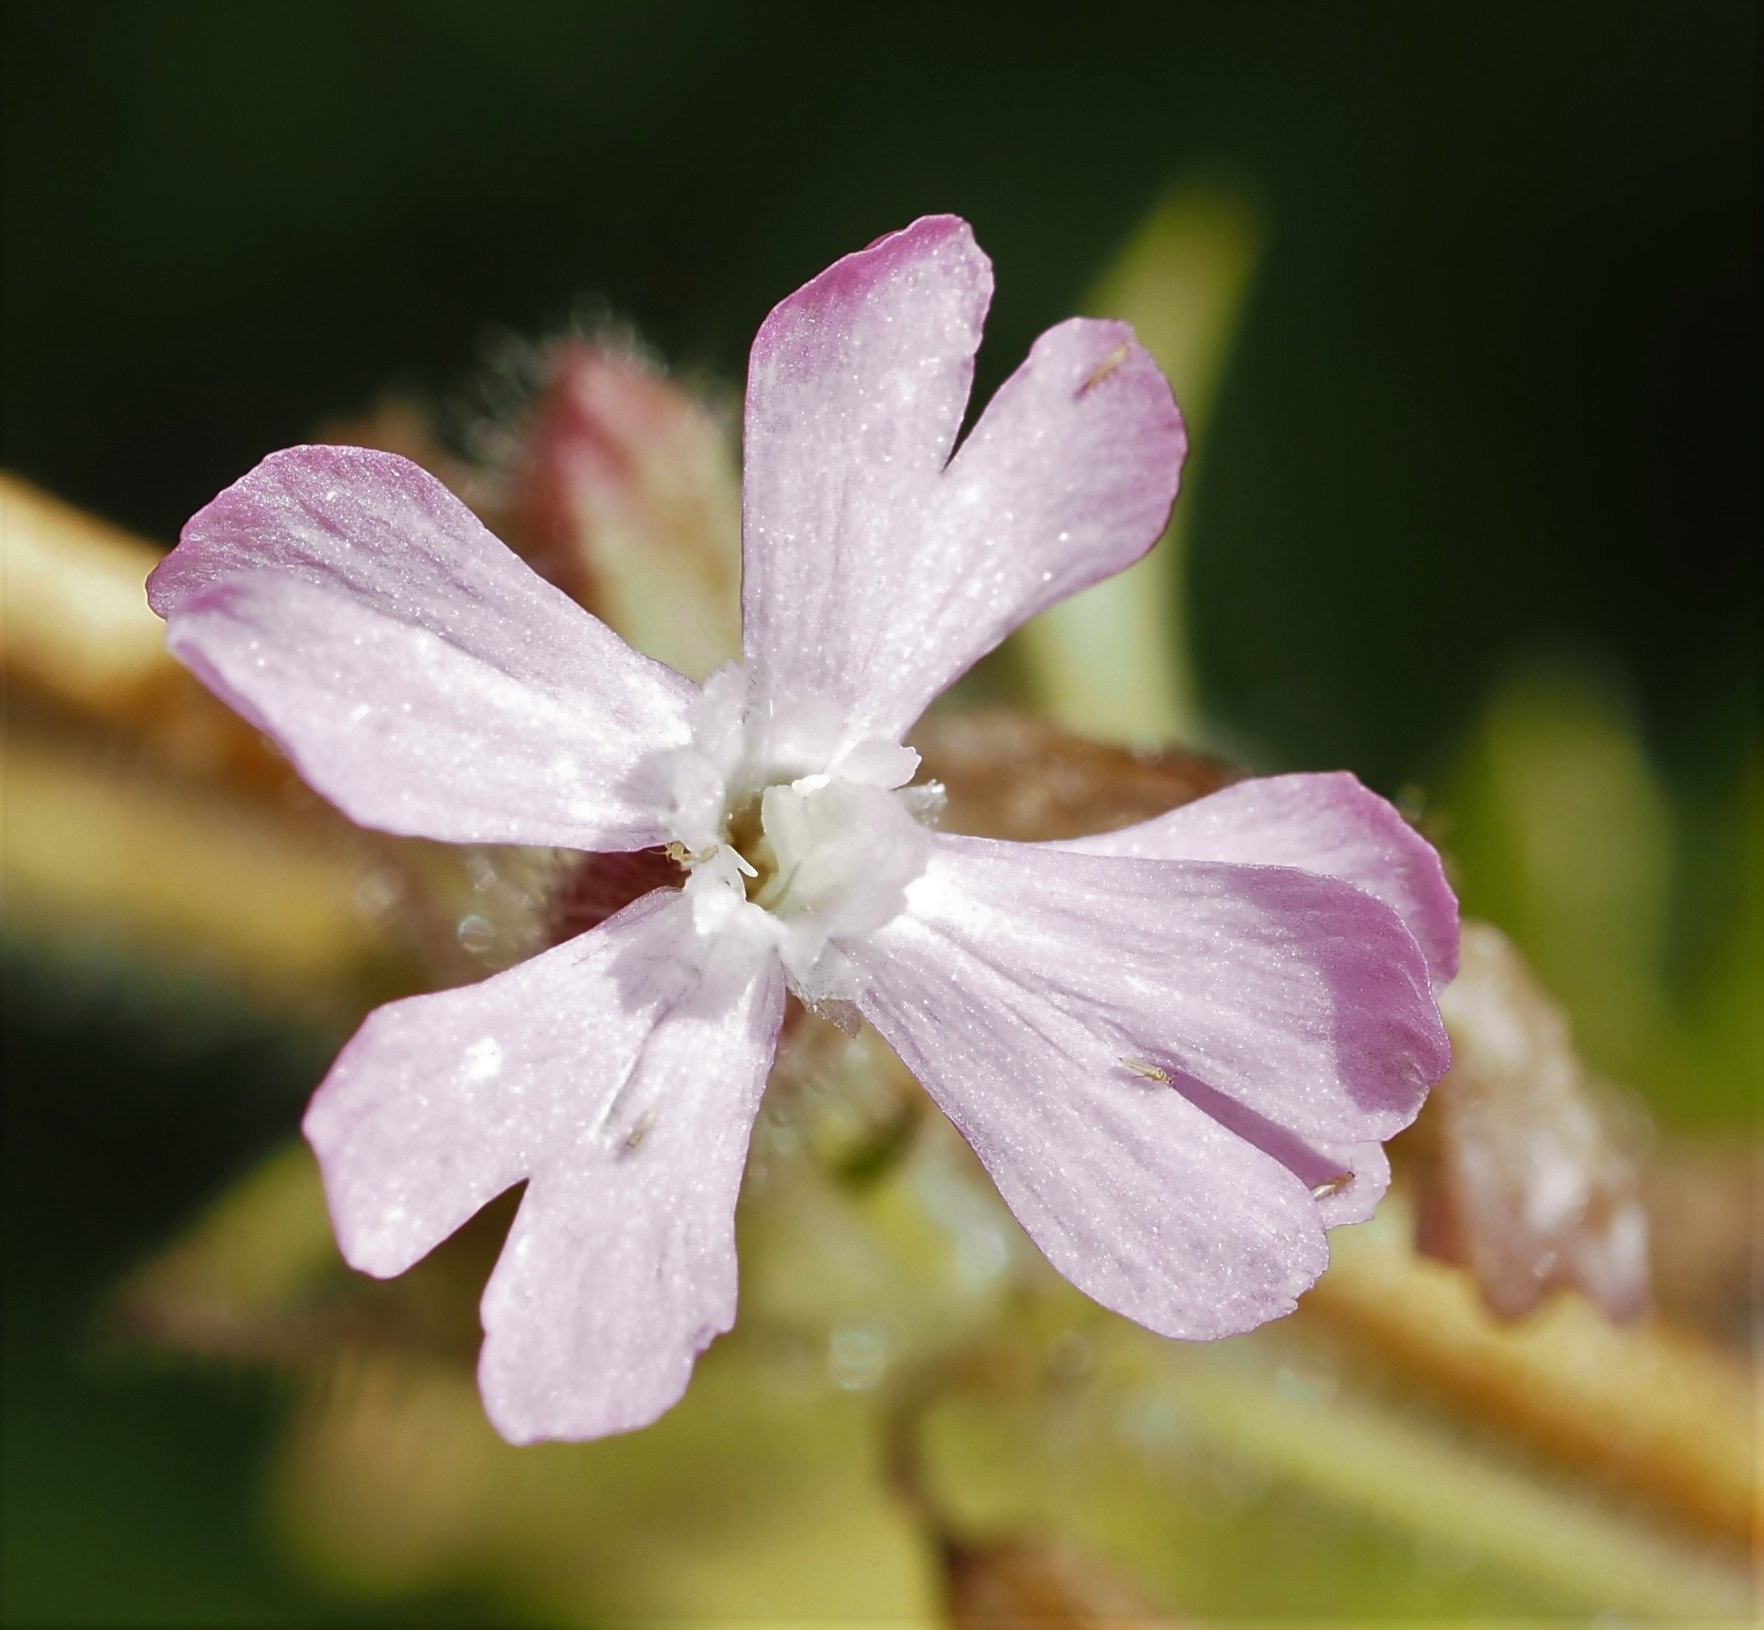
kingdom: Plantae
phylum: Tracheophyta
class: Magnoliopsida
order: Caryophyllales
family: Caryophyllaceae
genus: Silene
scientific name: Silene dioica
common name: Dagpragtstjerne
